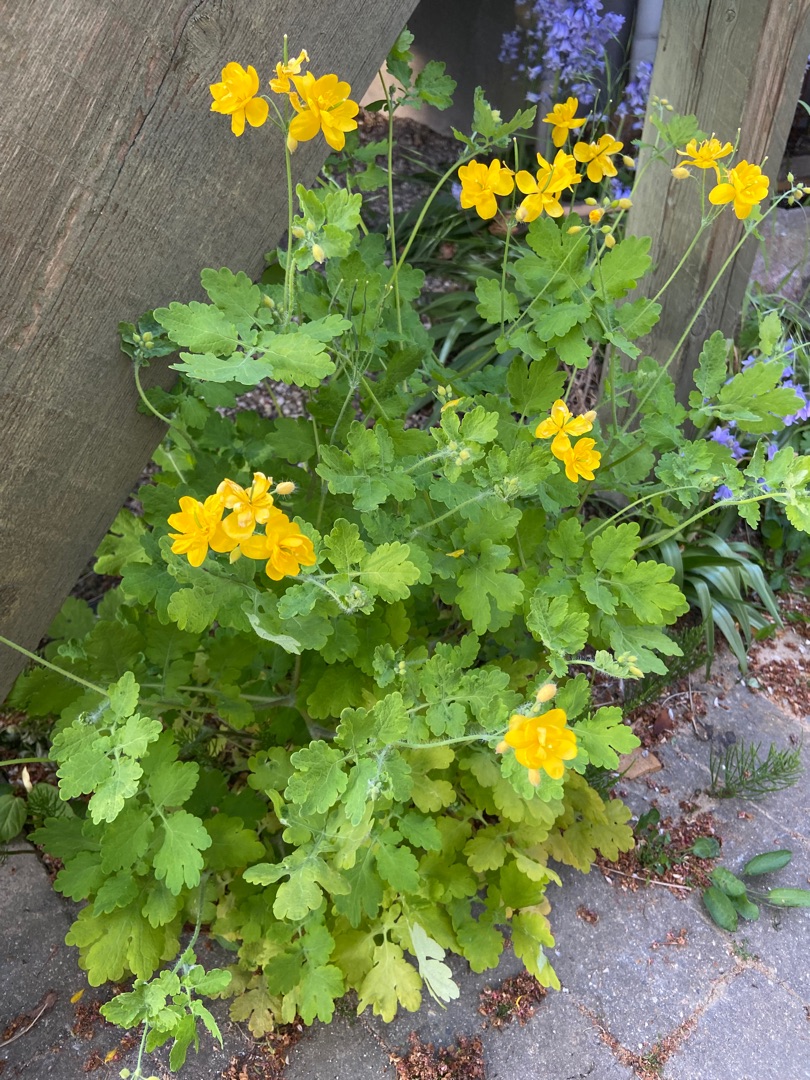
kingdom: Plantae
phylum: Tracheophyta
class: Magnoliopsida
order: Ranunculales
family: Papaveraceae
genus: Chelidonium
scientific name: Chelidonium majus
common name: Svaleurt
